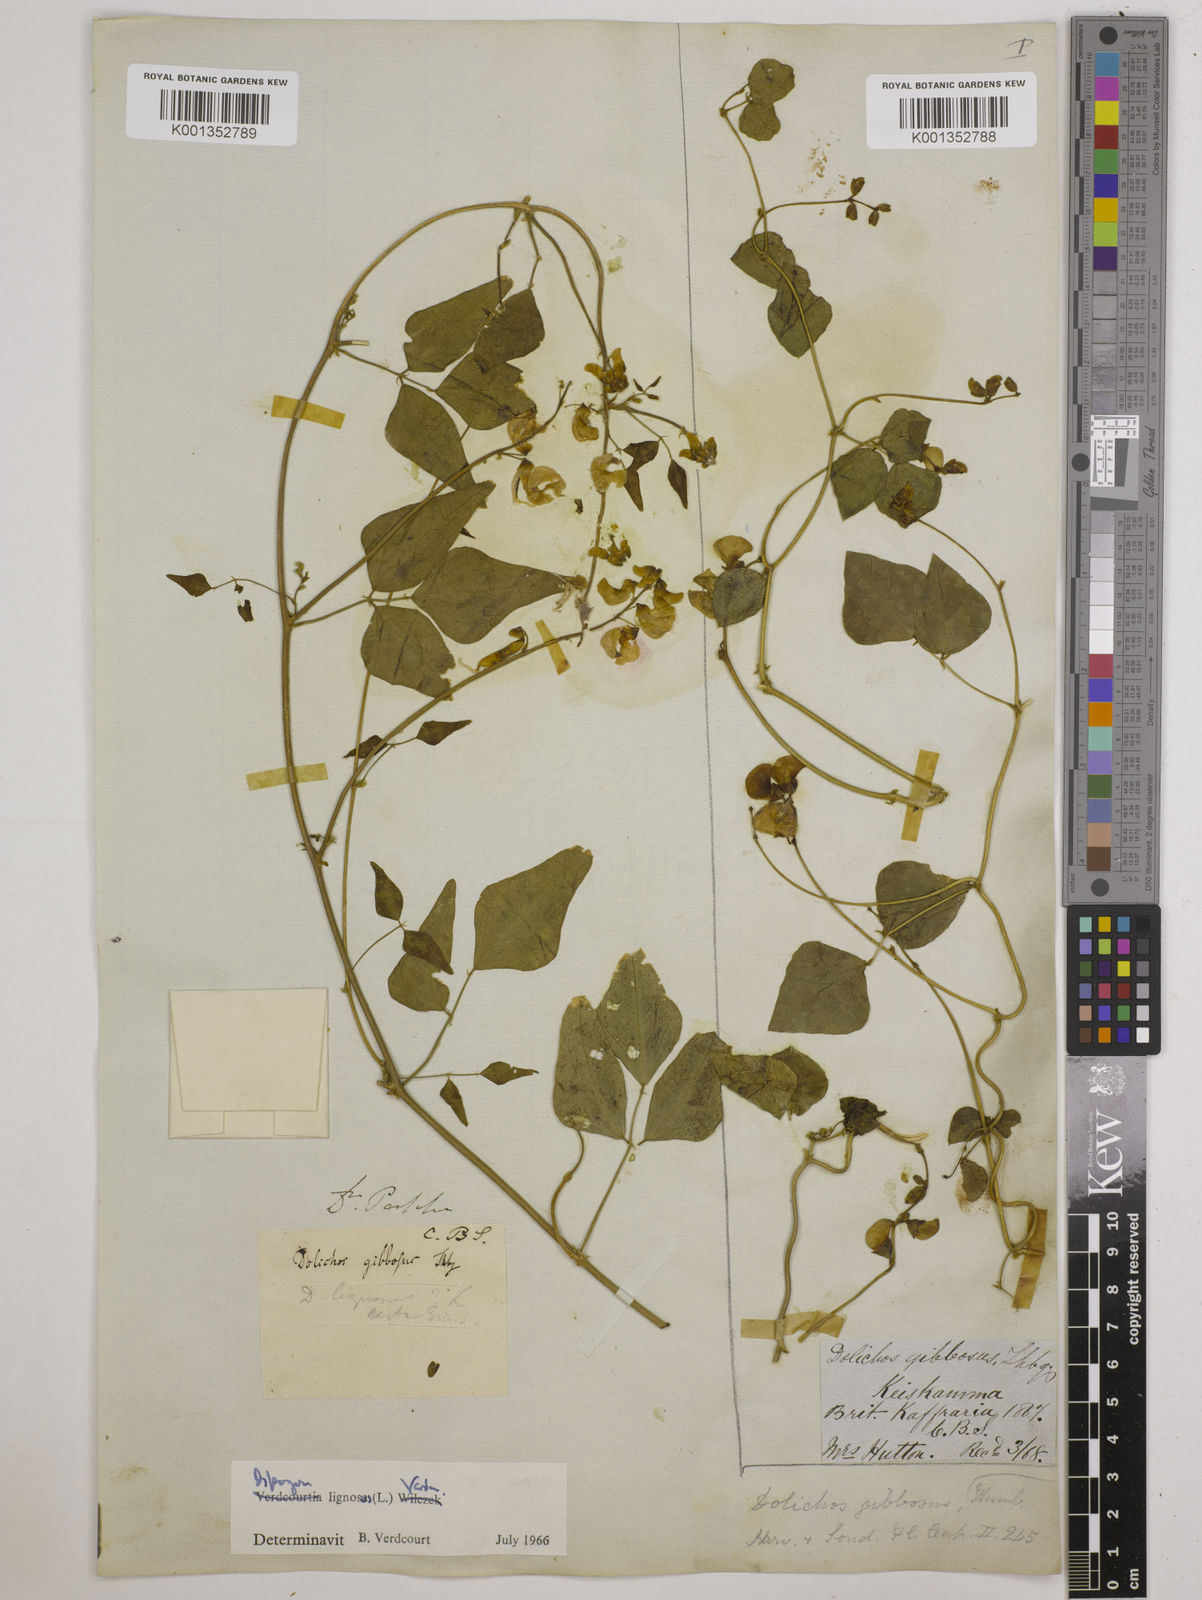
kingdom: Plantae
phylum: Tracheophyta
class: Magnoliopsida
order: Fabales
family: Fabaceae
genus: Dipogon
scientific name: Dipogon lignosus
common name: Okie bean
